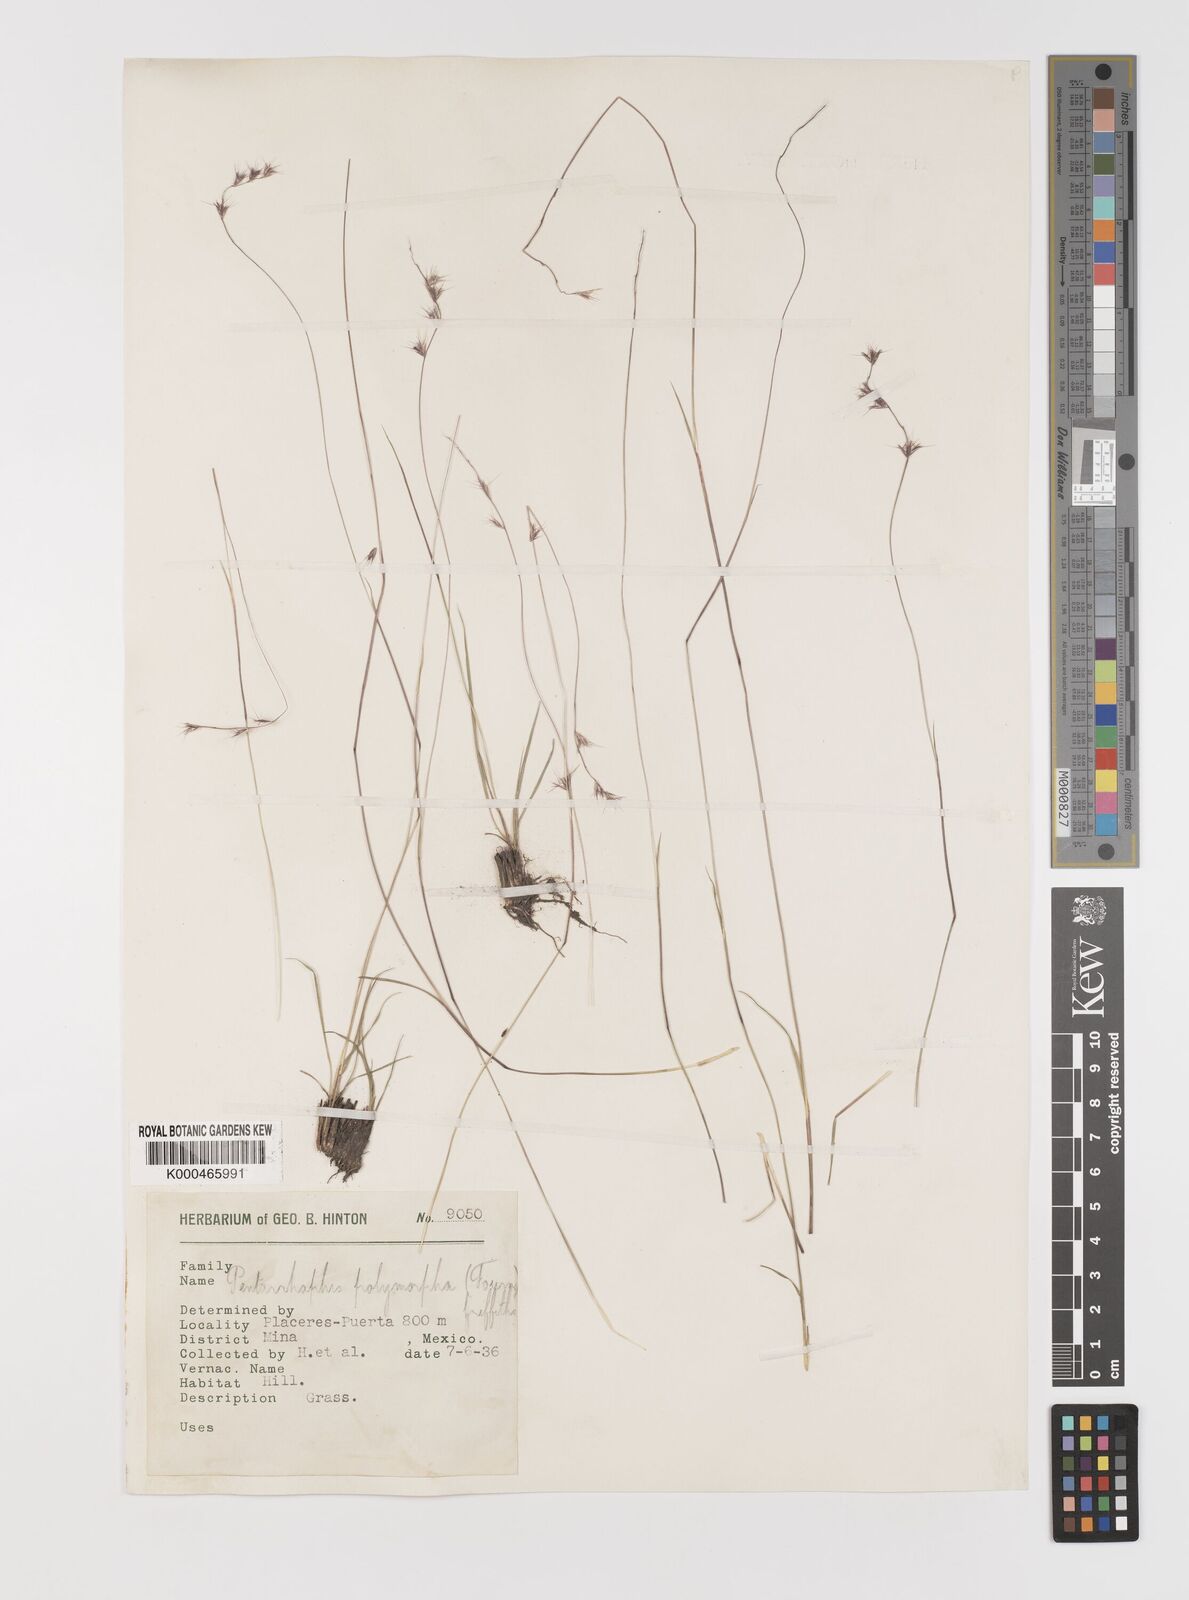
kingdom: Plantae
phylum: Tracheophyta
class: Liliopsida
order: Poales
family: Poaceae
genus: Bouteloua
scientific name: Bouteloua polymorpha
